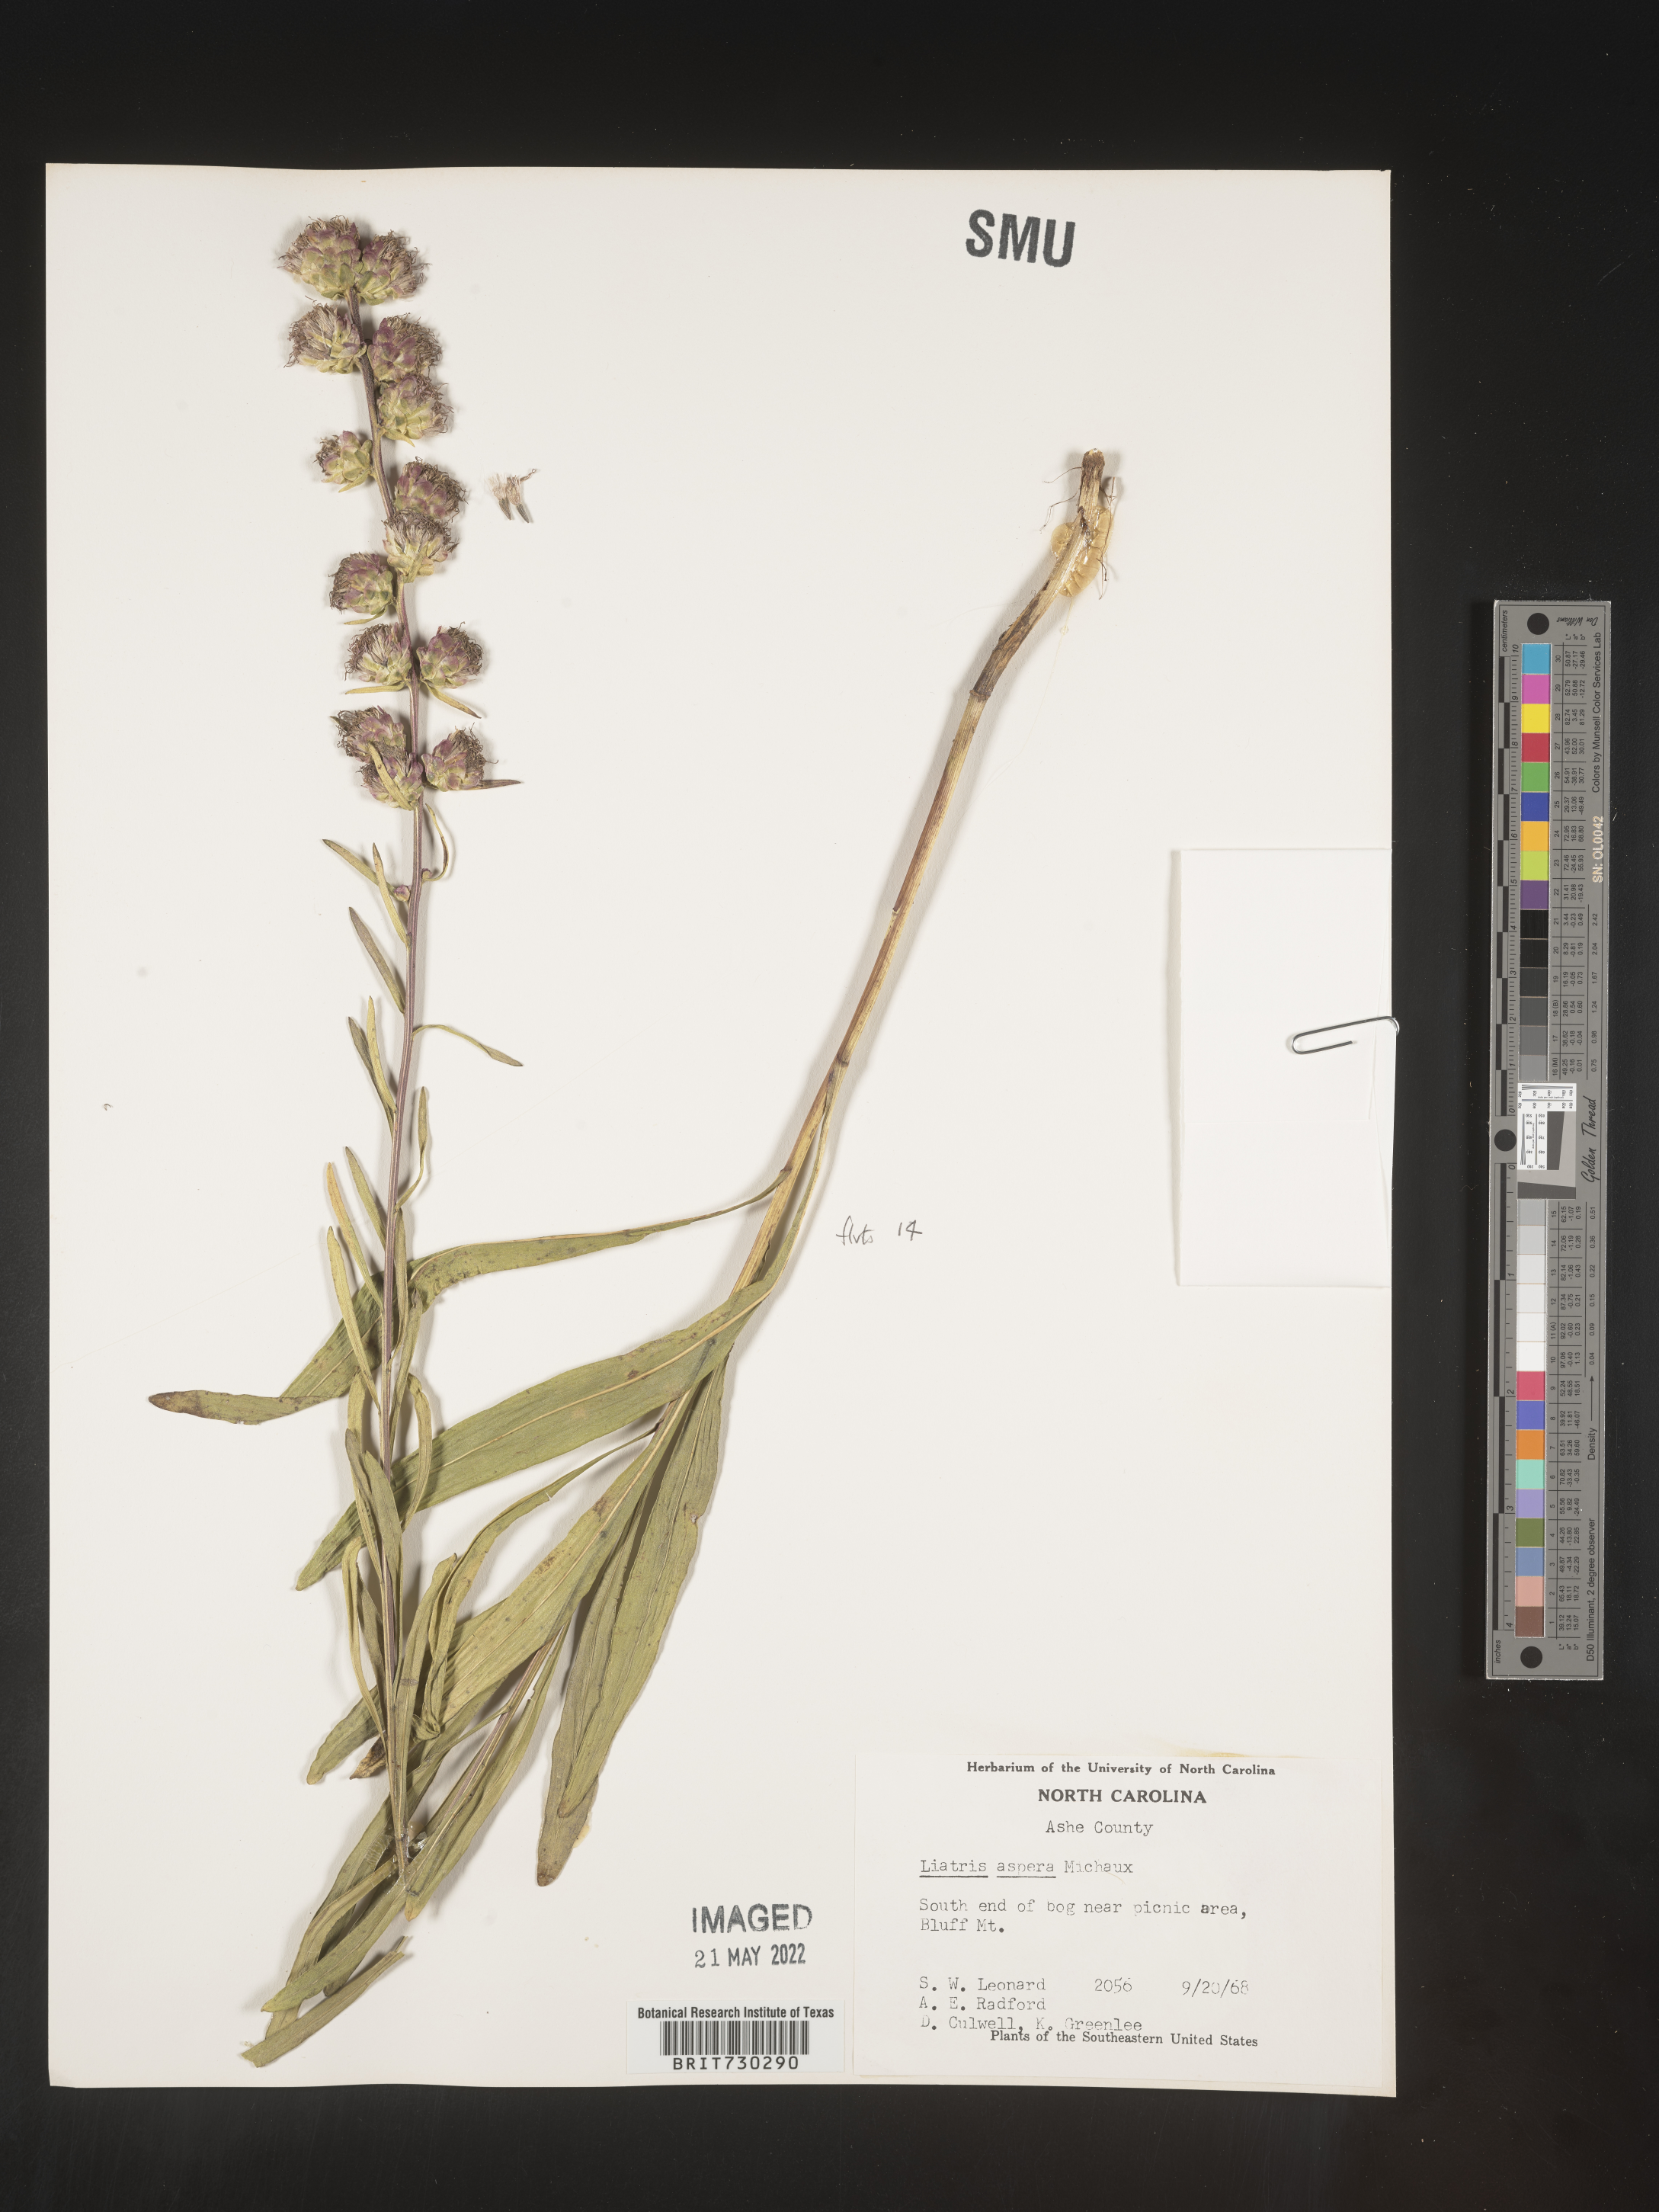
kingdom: Plantae
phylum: Tracheophyta
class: Magnoliopsida
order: Asterales
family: Asteraceae
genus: Liatris
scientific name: Liatris aspera
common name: Lacerate blazing-star
